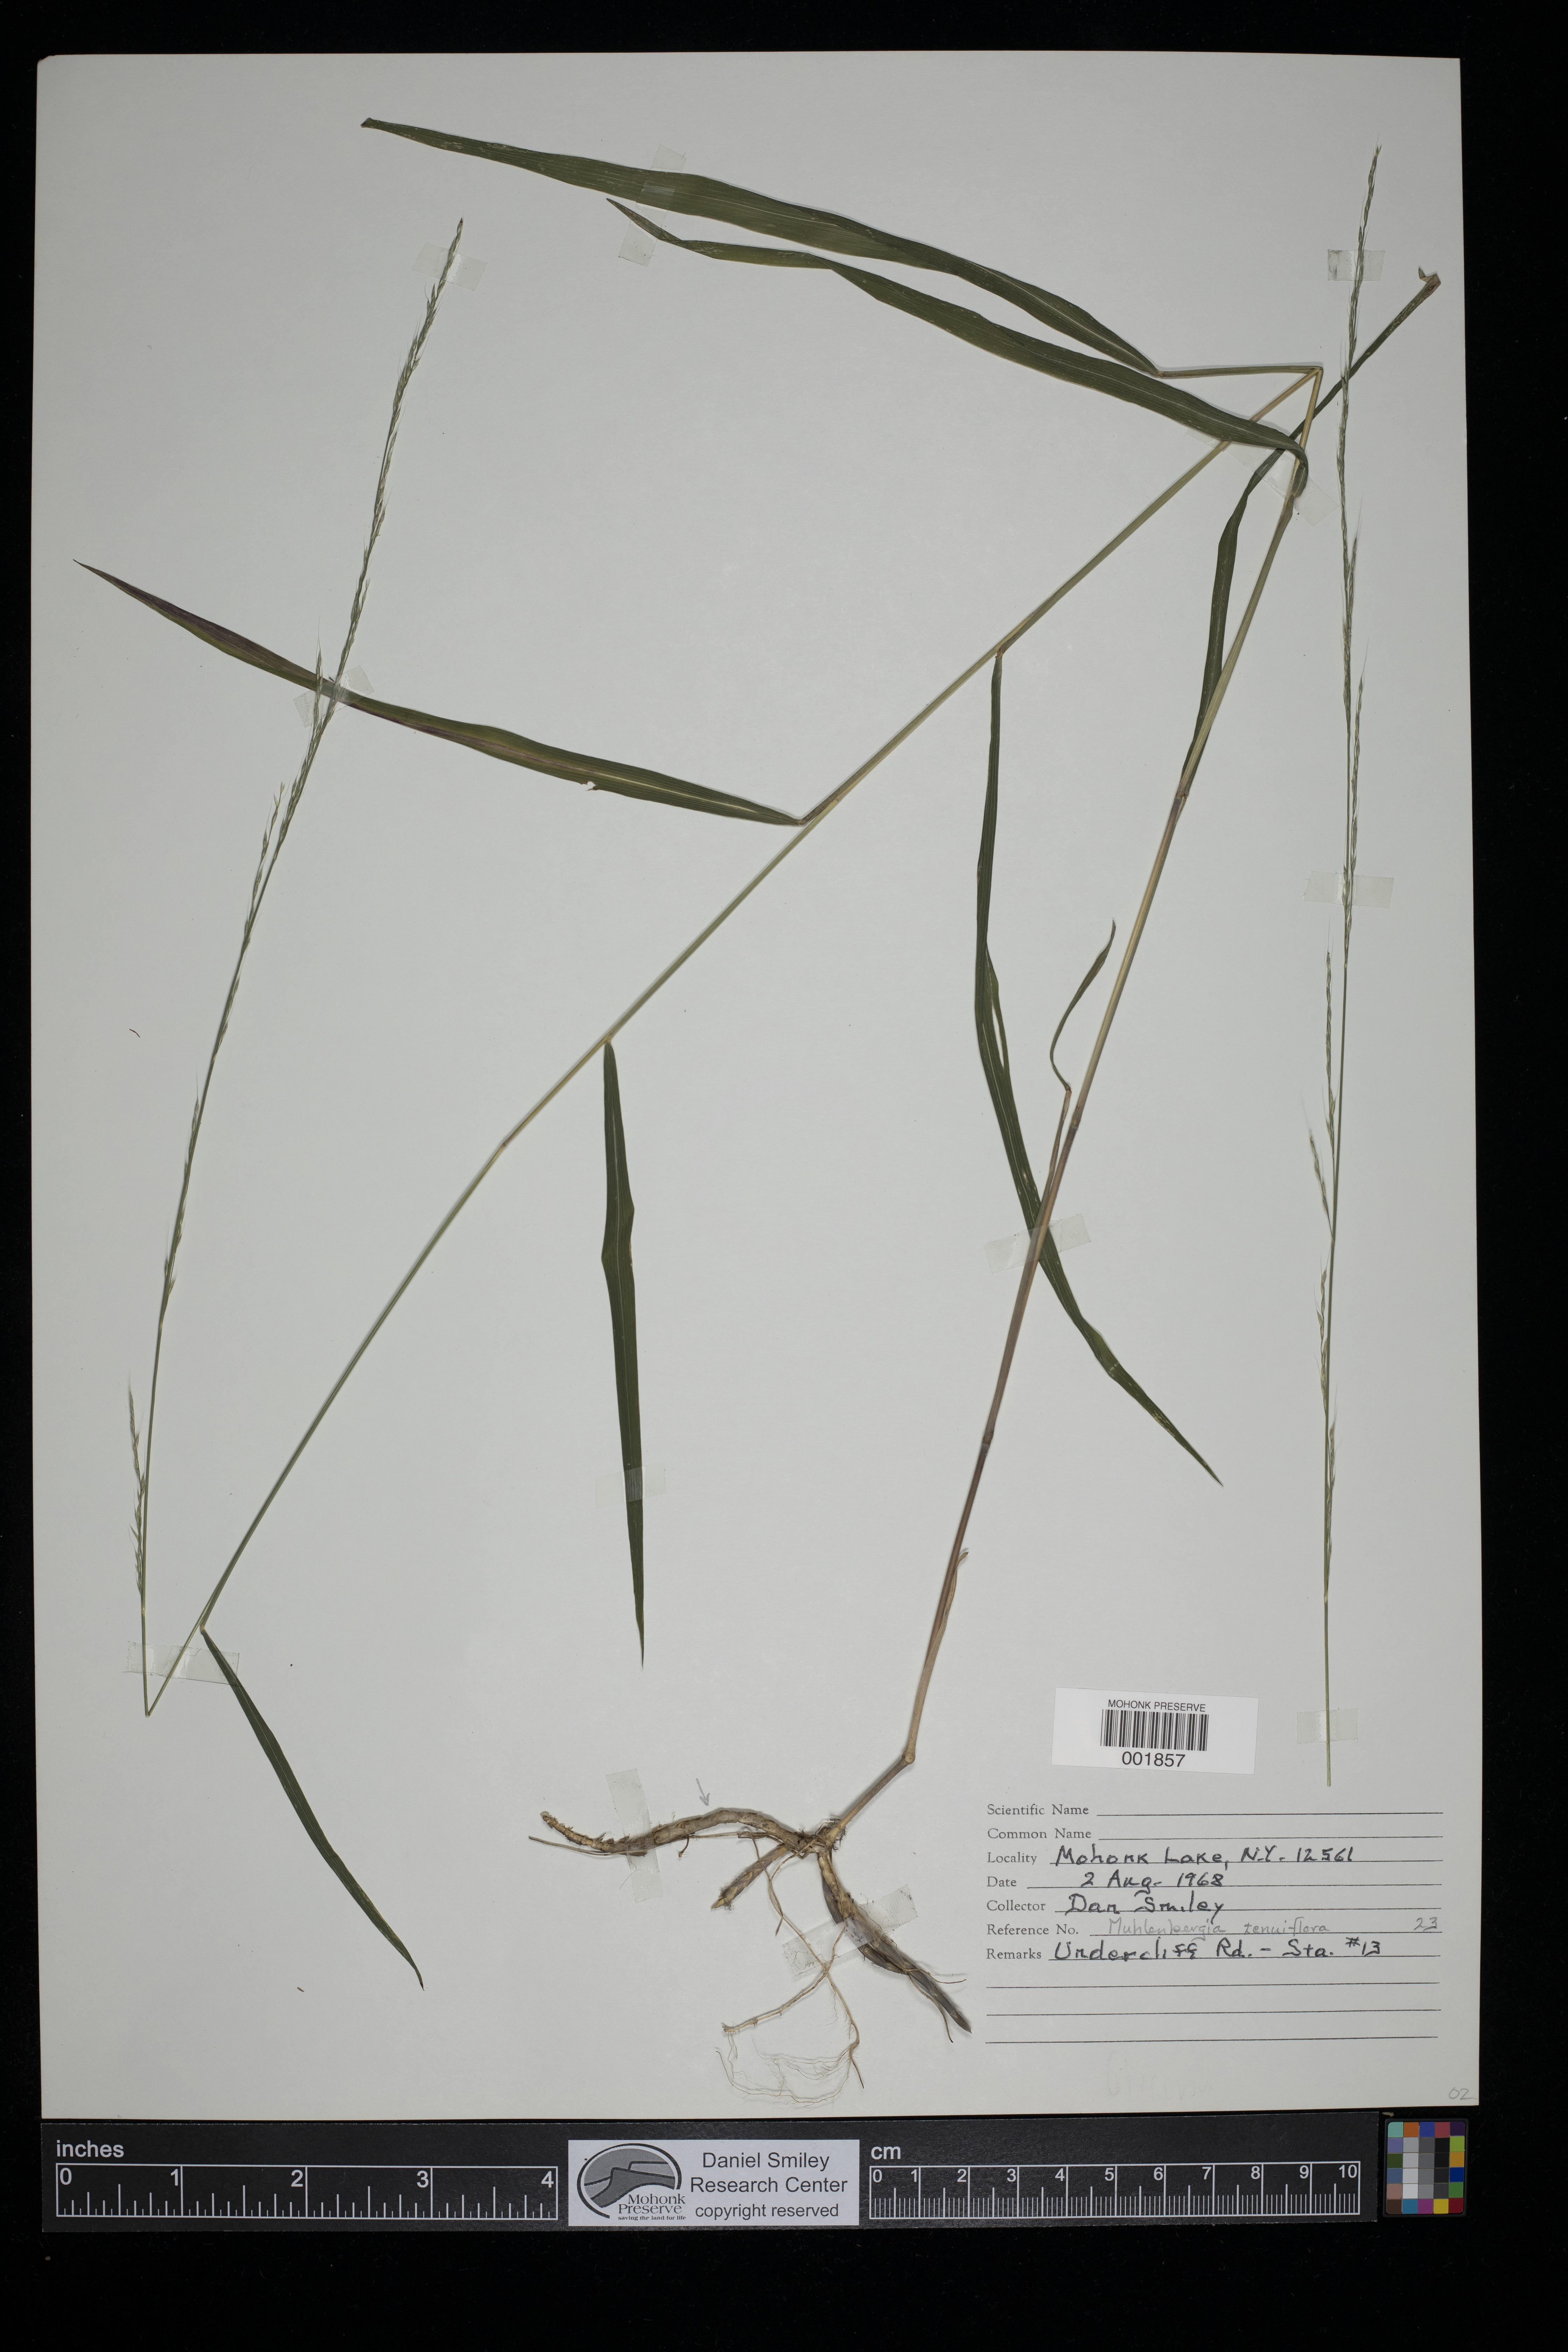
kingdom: Plantae
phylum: Tracheophyta
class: Liliopsida
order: Poales
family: Poaceae
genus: Muhlenbergia
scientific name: Muhlenbergia tenuiflora
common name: Slender muhly
